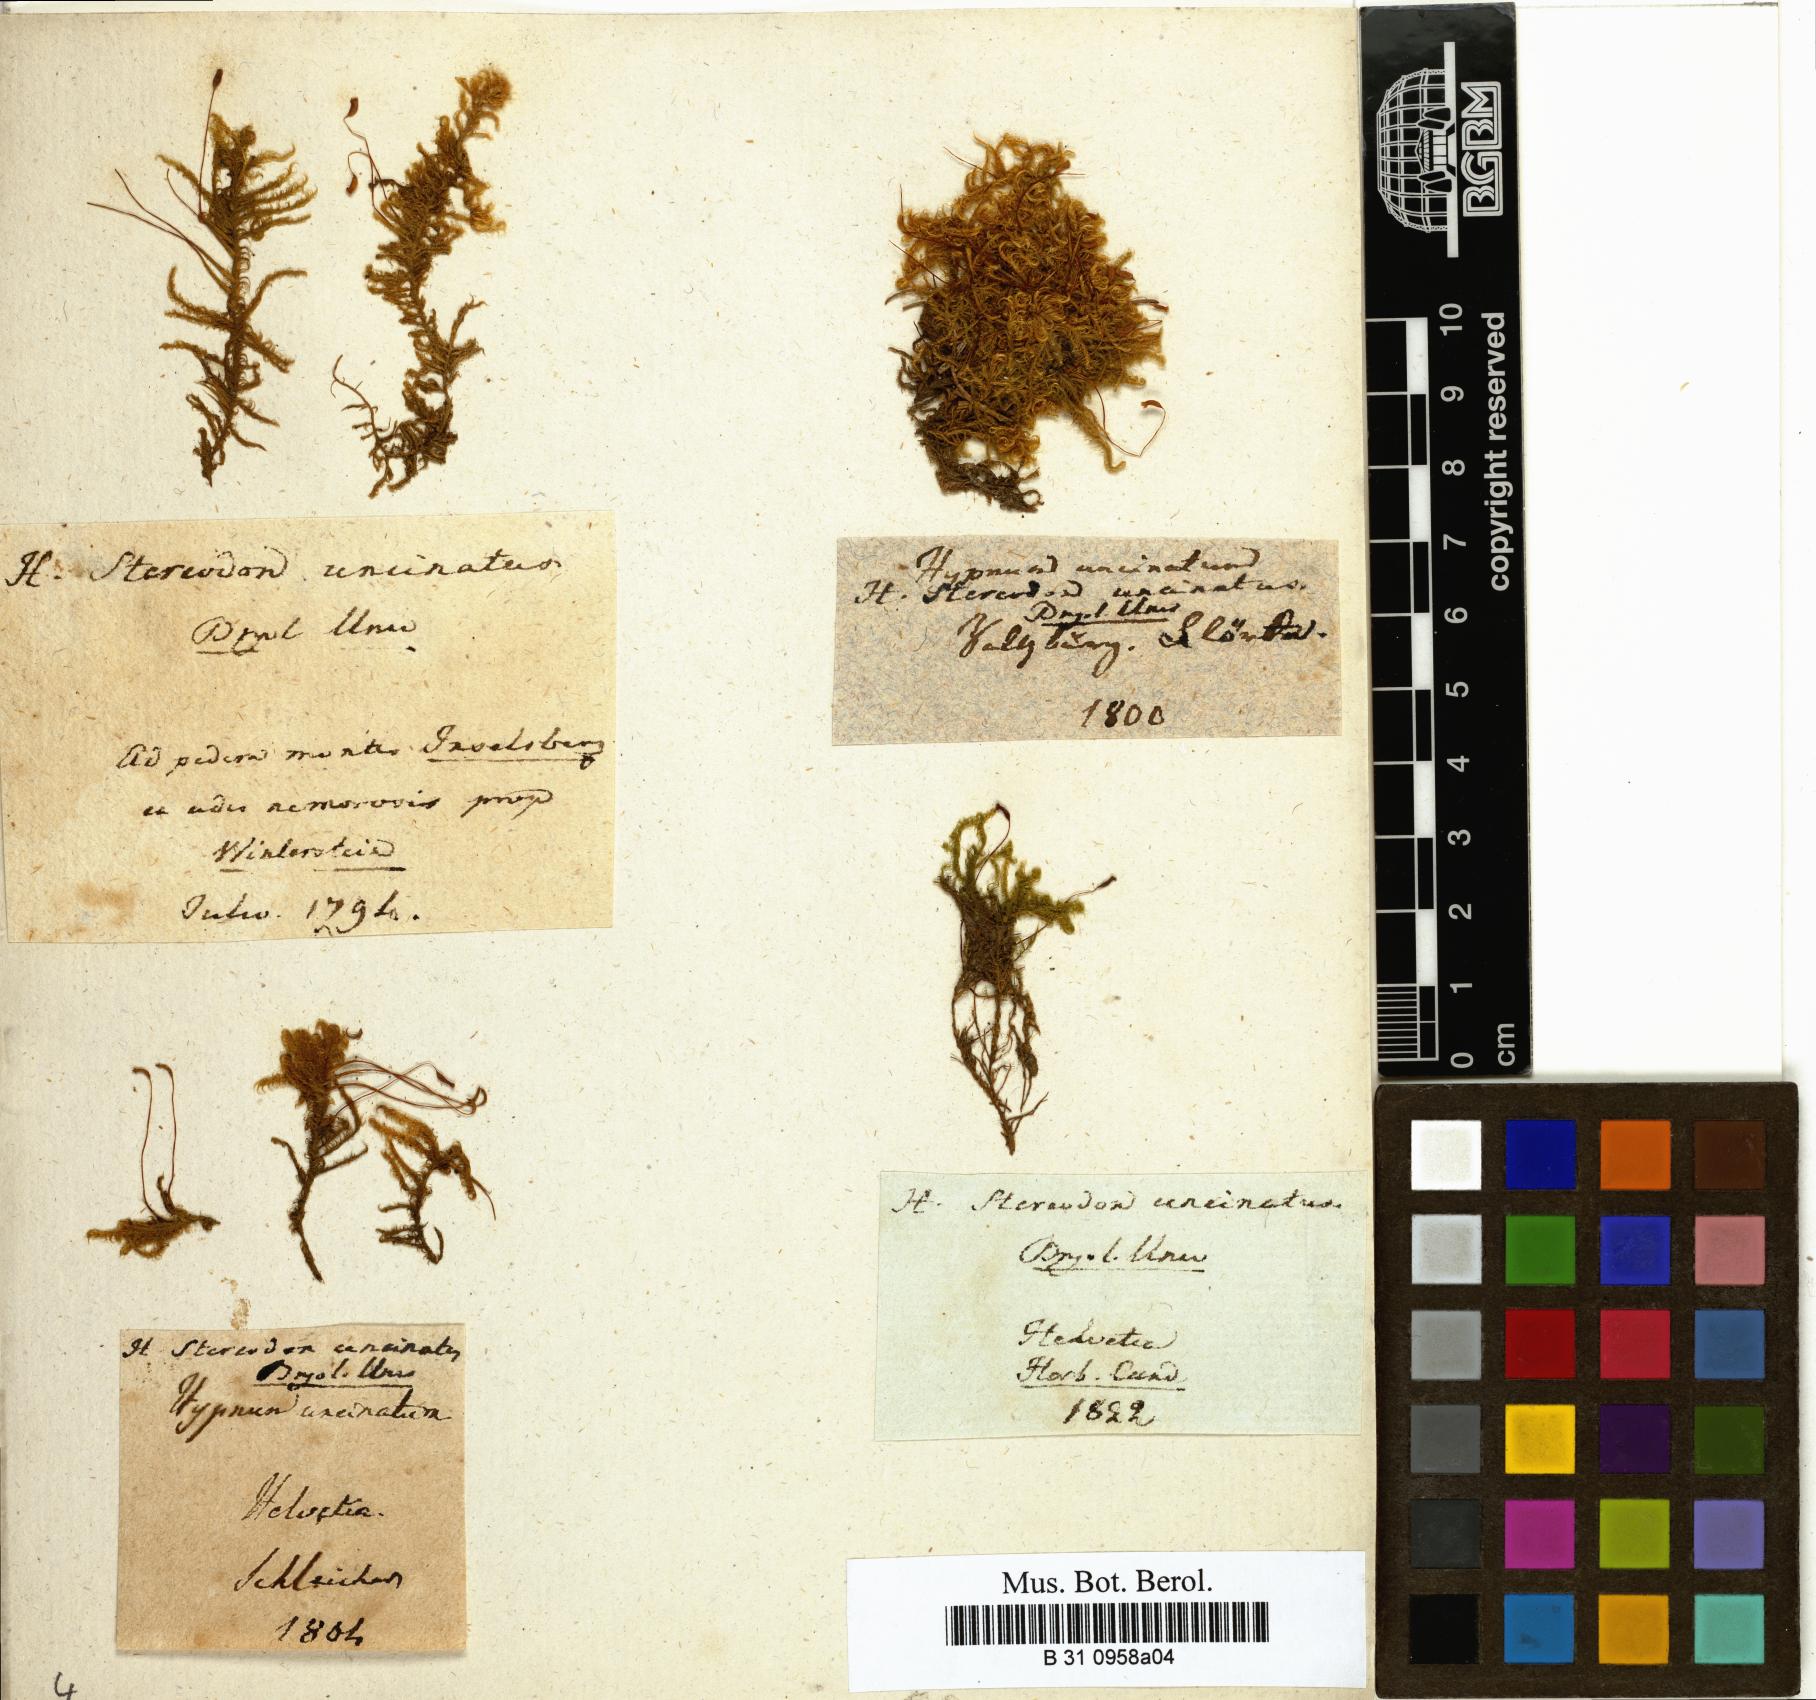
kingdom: Plantae
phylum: Bryophyta
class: Bryopsida
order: Hypnales
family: Scorpidiaceae
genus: Sanionia
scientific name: Sanionia uncinata
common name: Sickle moss
